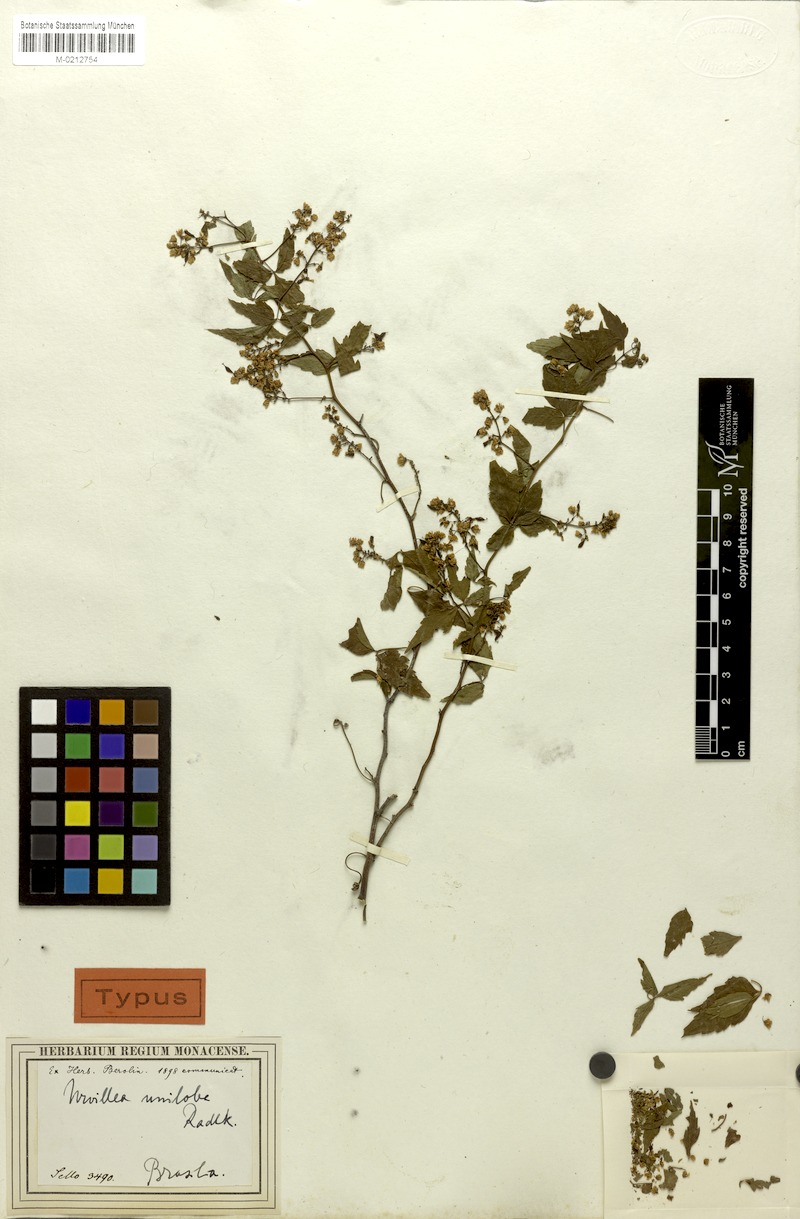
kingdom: Plantae
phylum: Tracheophyta
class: Magnoliopsida
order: Sapindales
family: Sapindaceae
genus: Urvillea
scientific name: Urvillea uniloba
